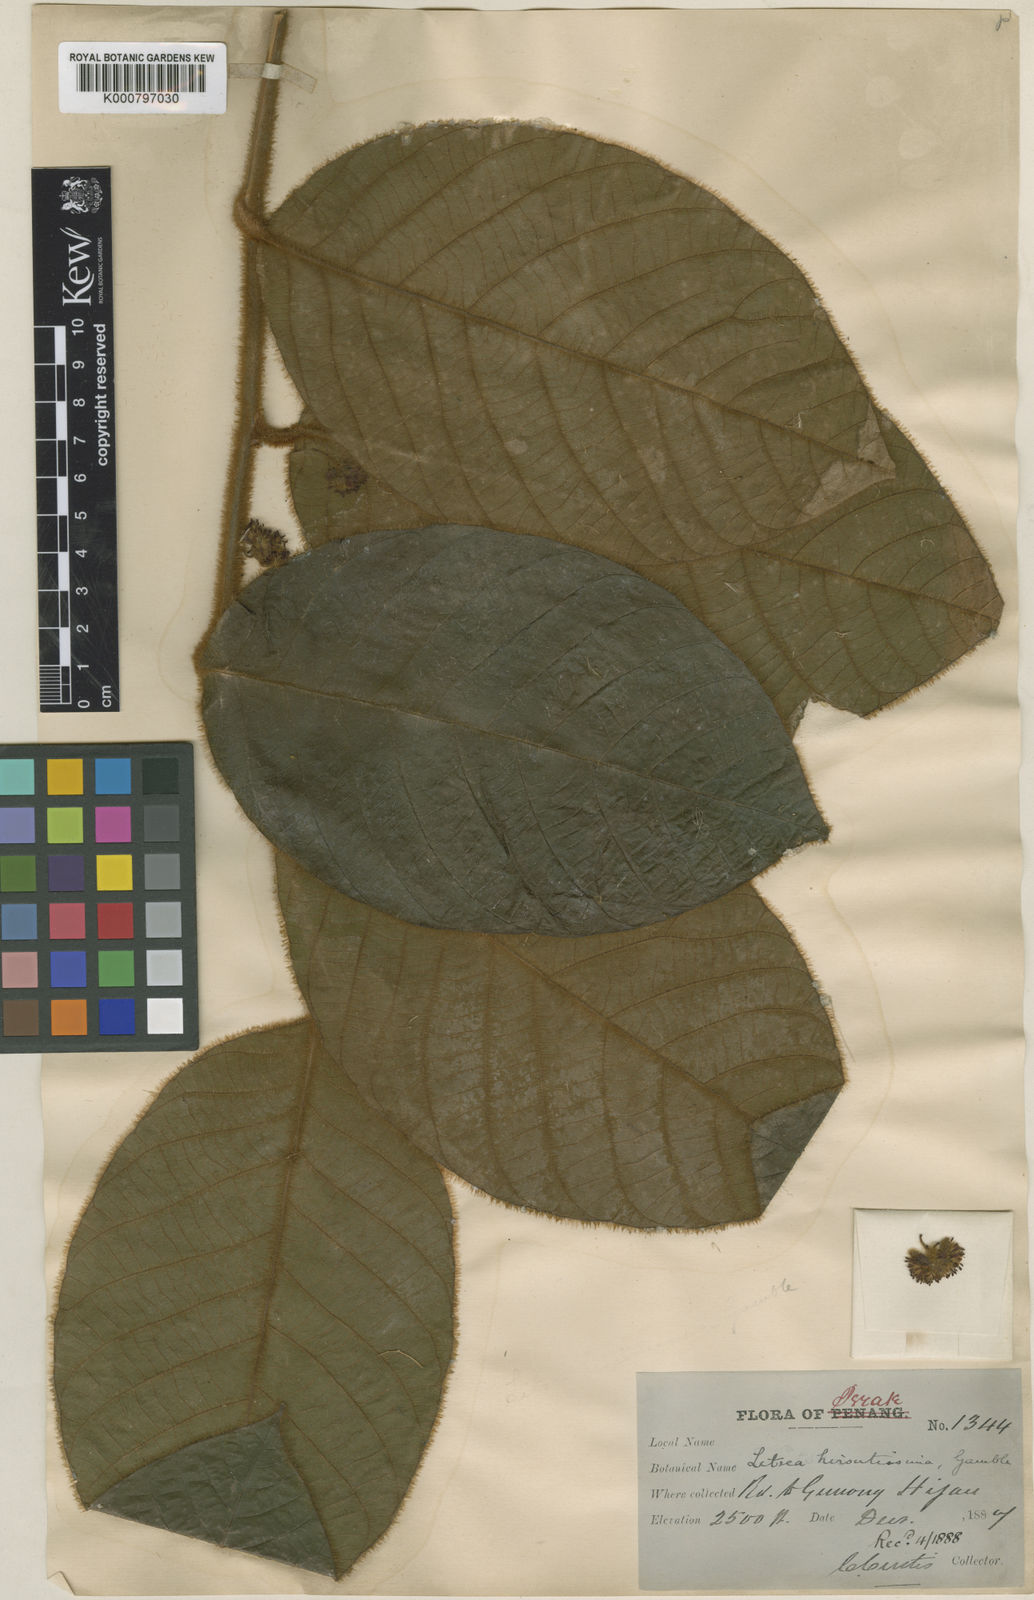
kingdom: Plantae
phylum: Tracheophyta
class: Magnoliopsida
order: Laurales
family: Lauraceae
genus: Litsea
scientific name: Litsea hirsutissima
